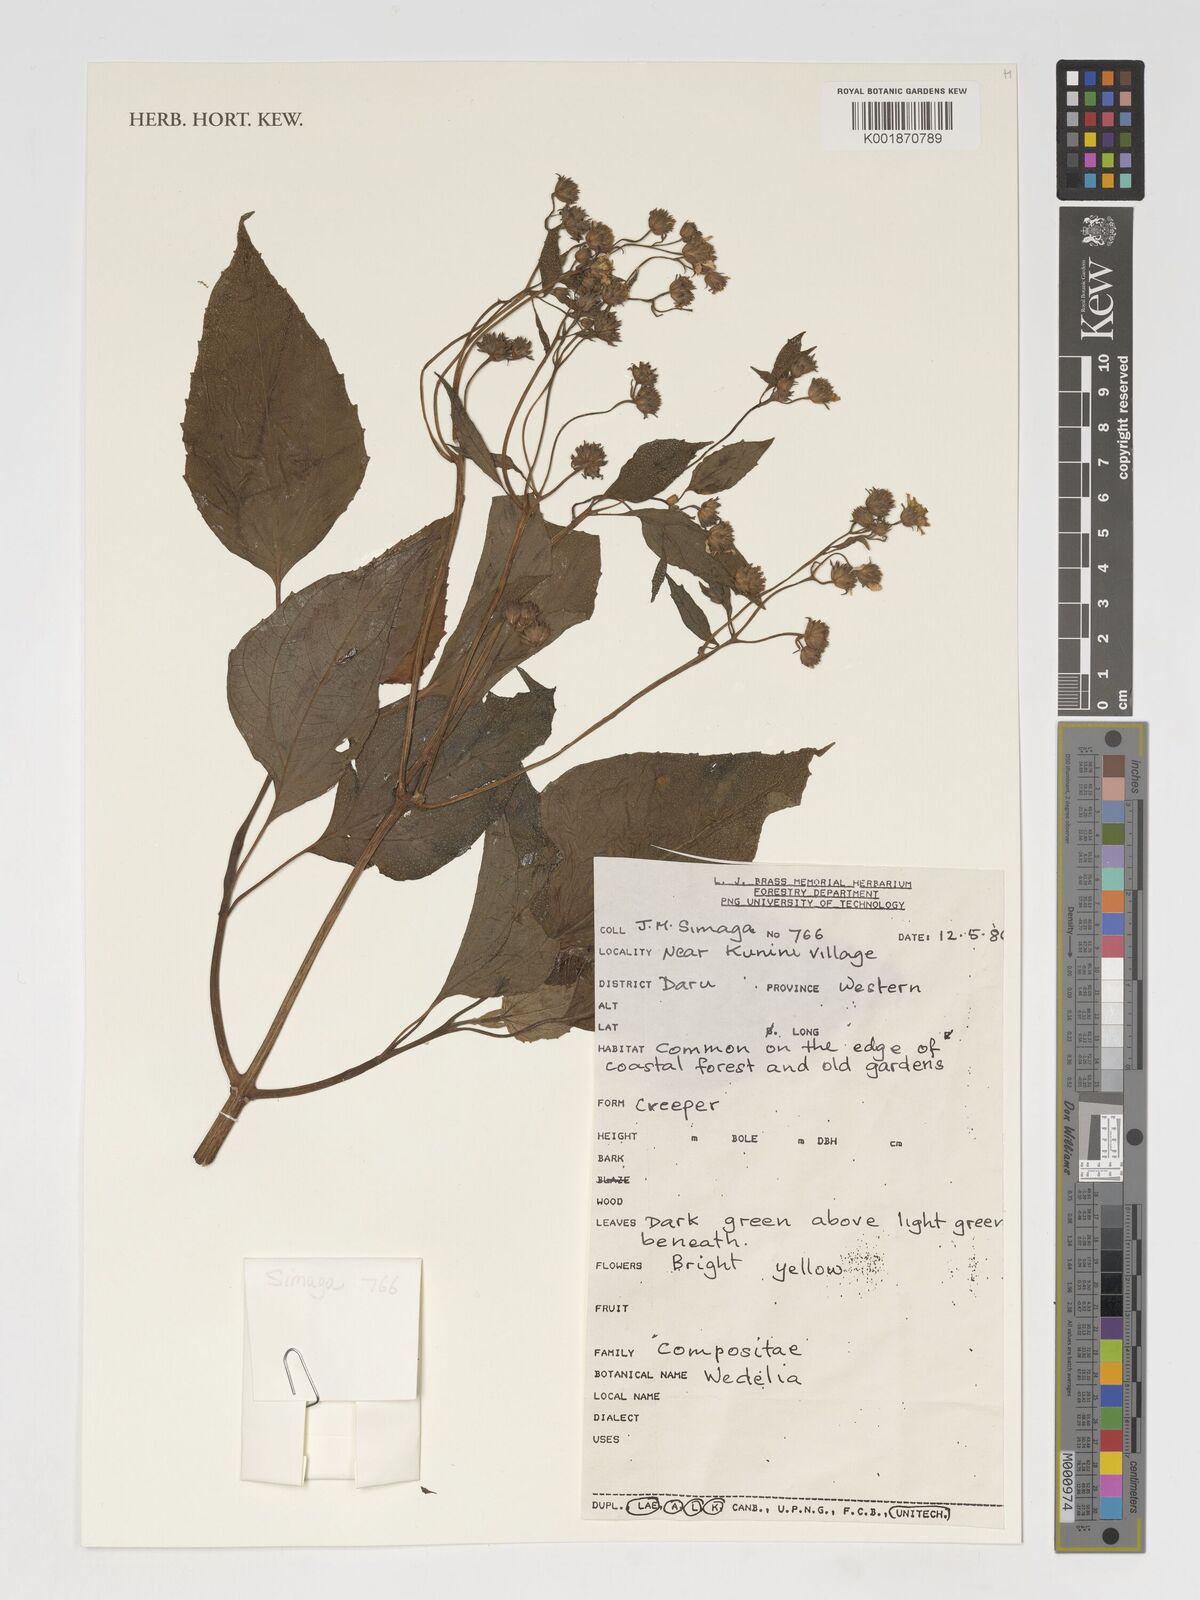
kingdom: Plantae
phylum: Tracheophyta
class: Magnoliopsida
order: Asterales
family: Asteraceae
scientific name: Asteraceae
